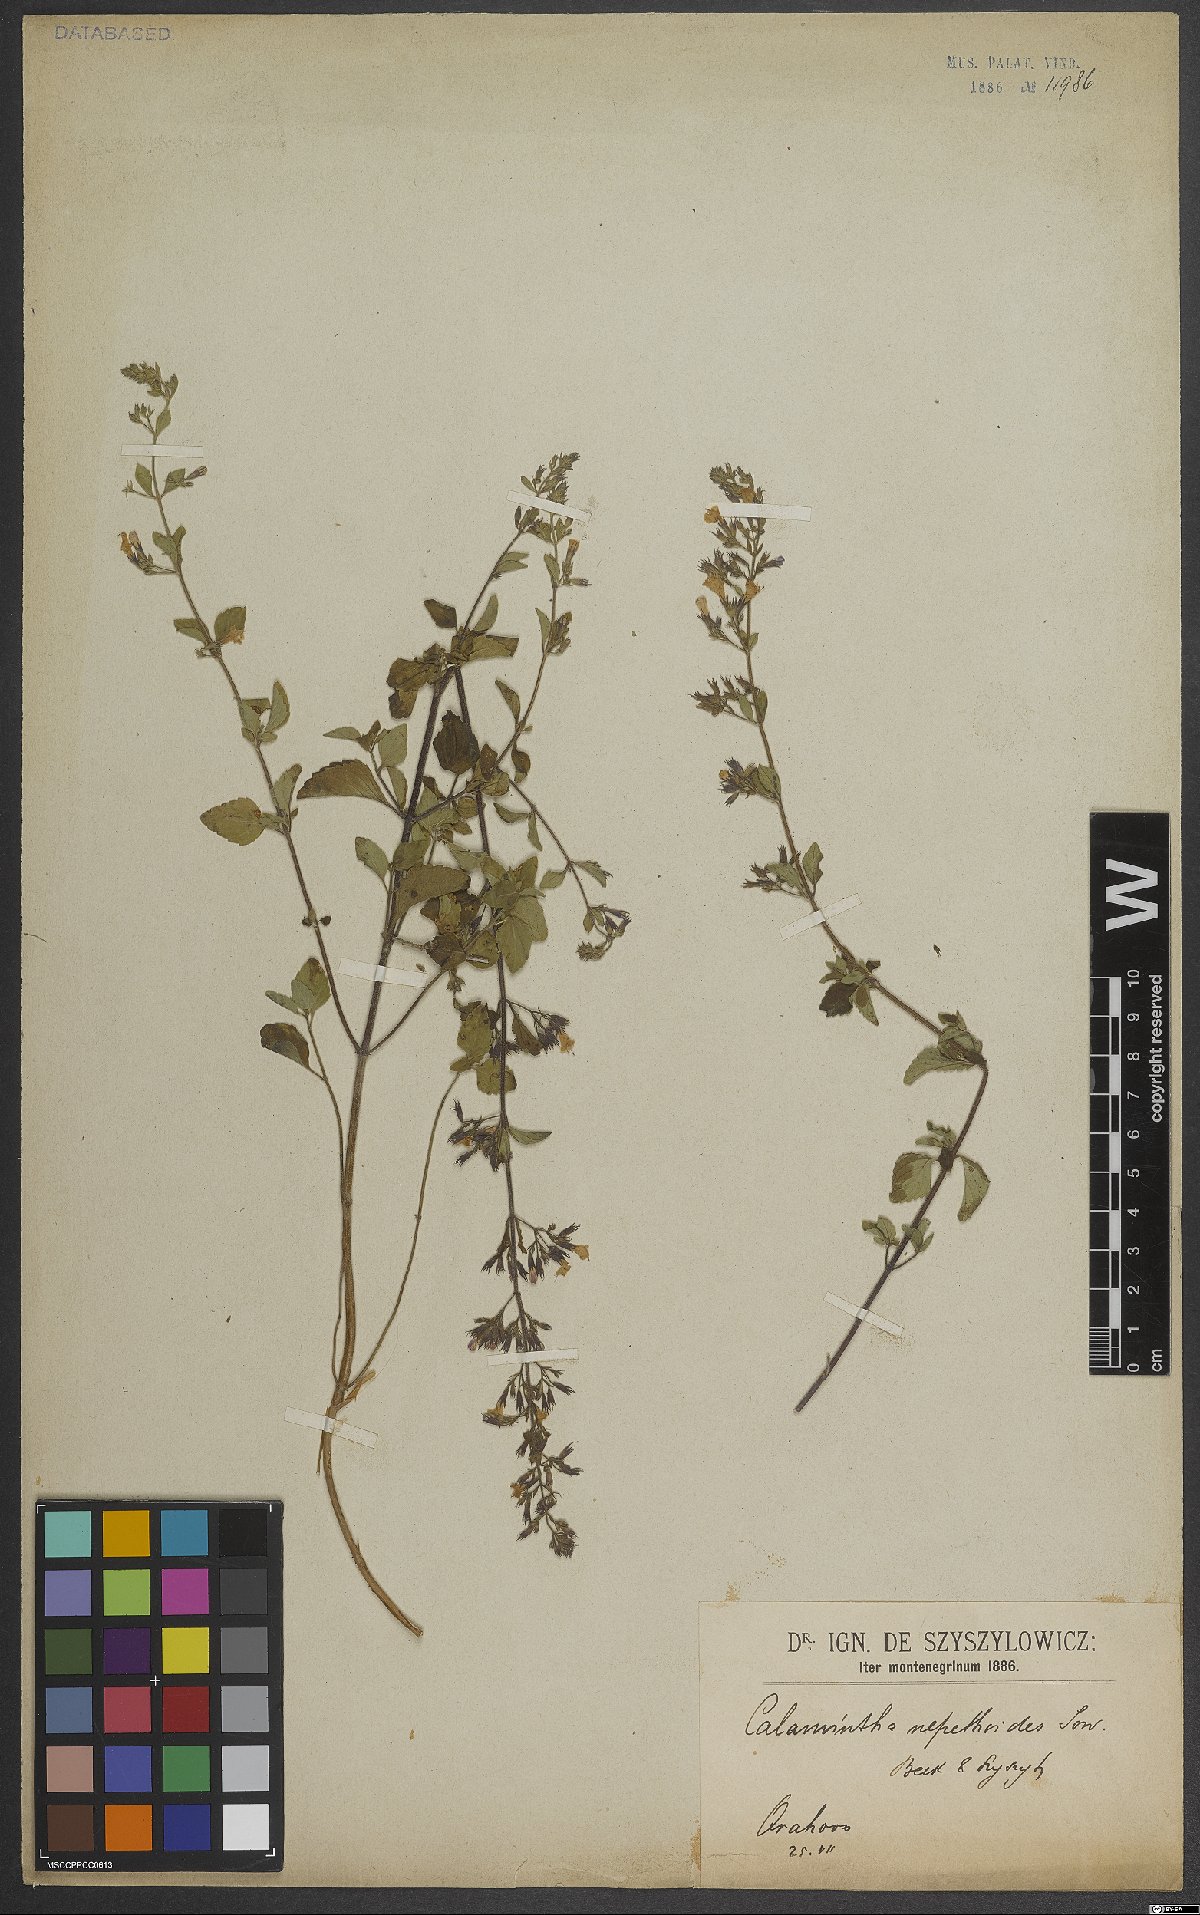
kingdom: Plantae
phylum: Tracheophyta
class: Magnoliopsida
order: Lamiales
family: Lamiaceae
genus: Clinopodium
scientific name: Clinopodium nepeta
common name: Lesser calamint
